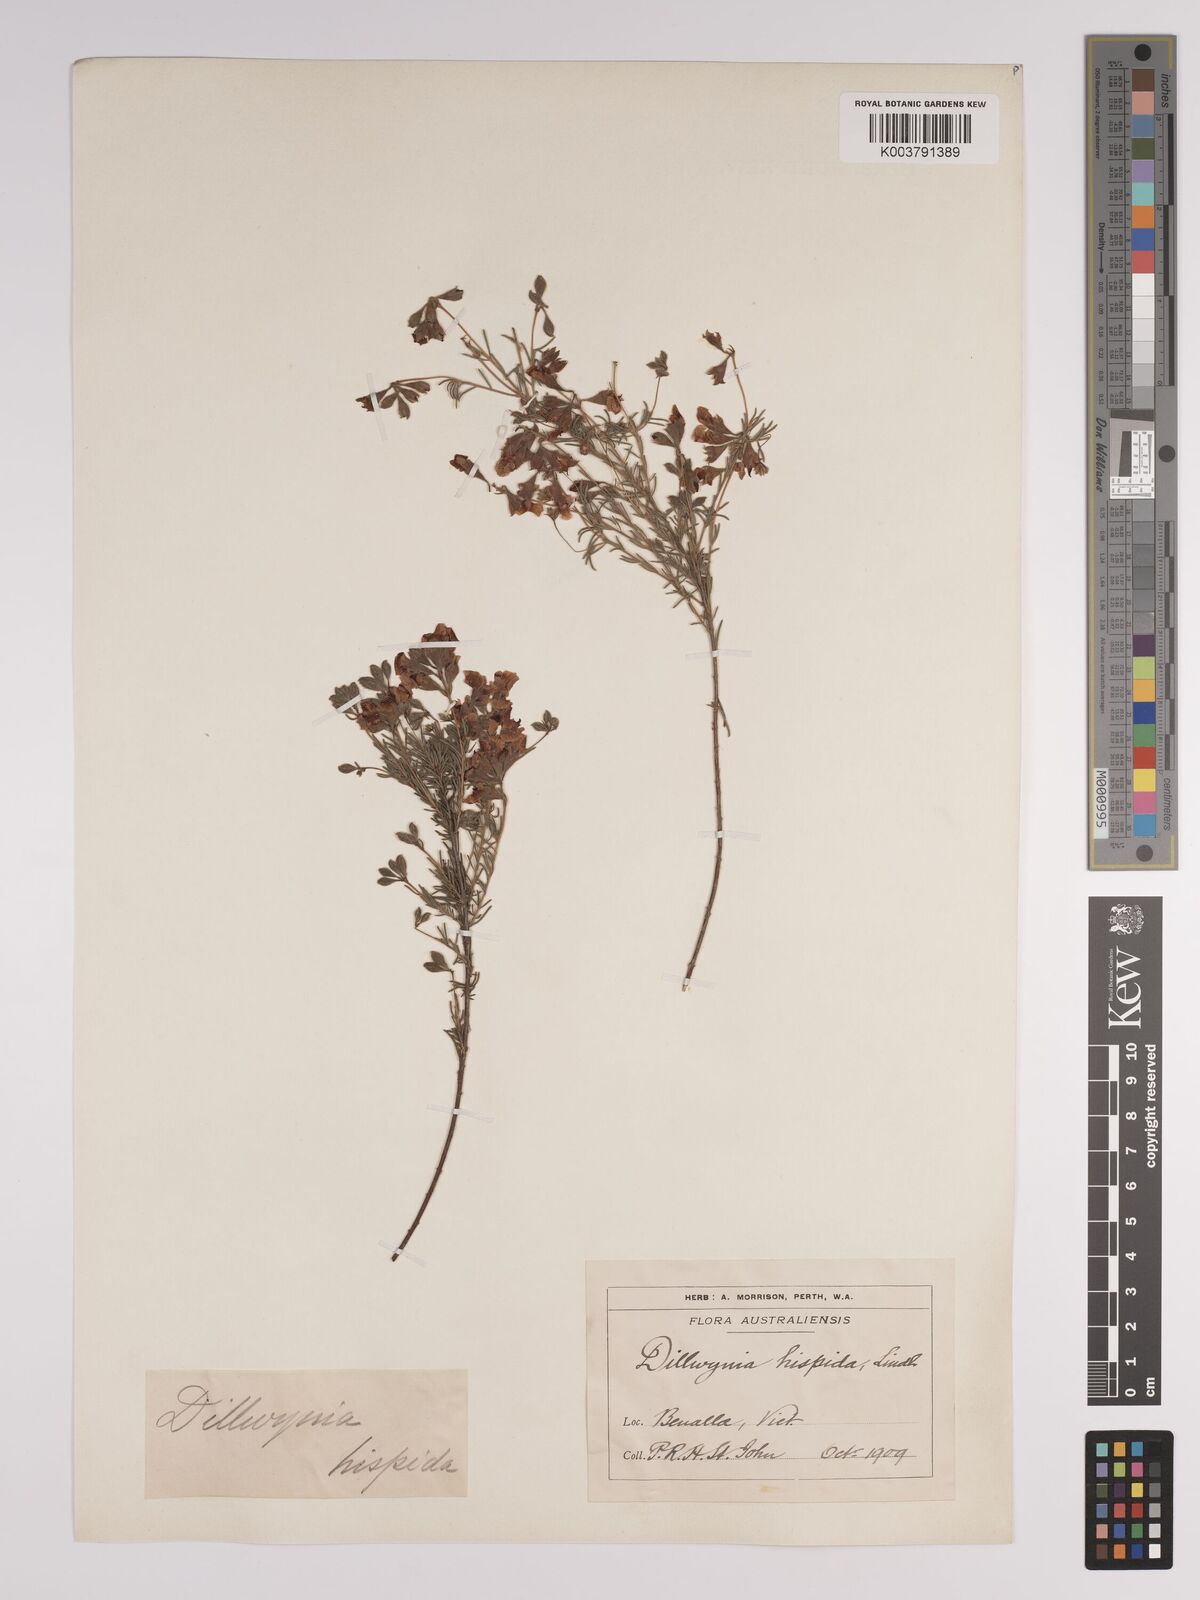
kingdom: Plantae
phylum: Tracheophyta
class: Magnoliopsida
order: Fabales
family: Fabaceae
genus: Dillwynia
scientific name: Dillwynia hispida
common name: Red parrot-pea
